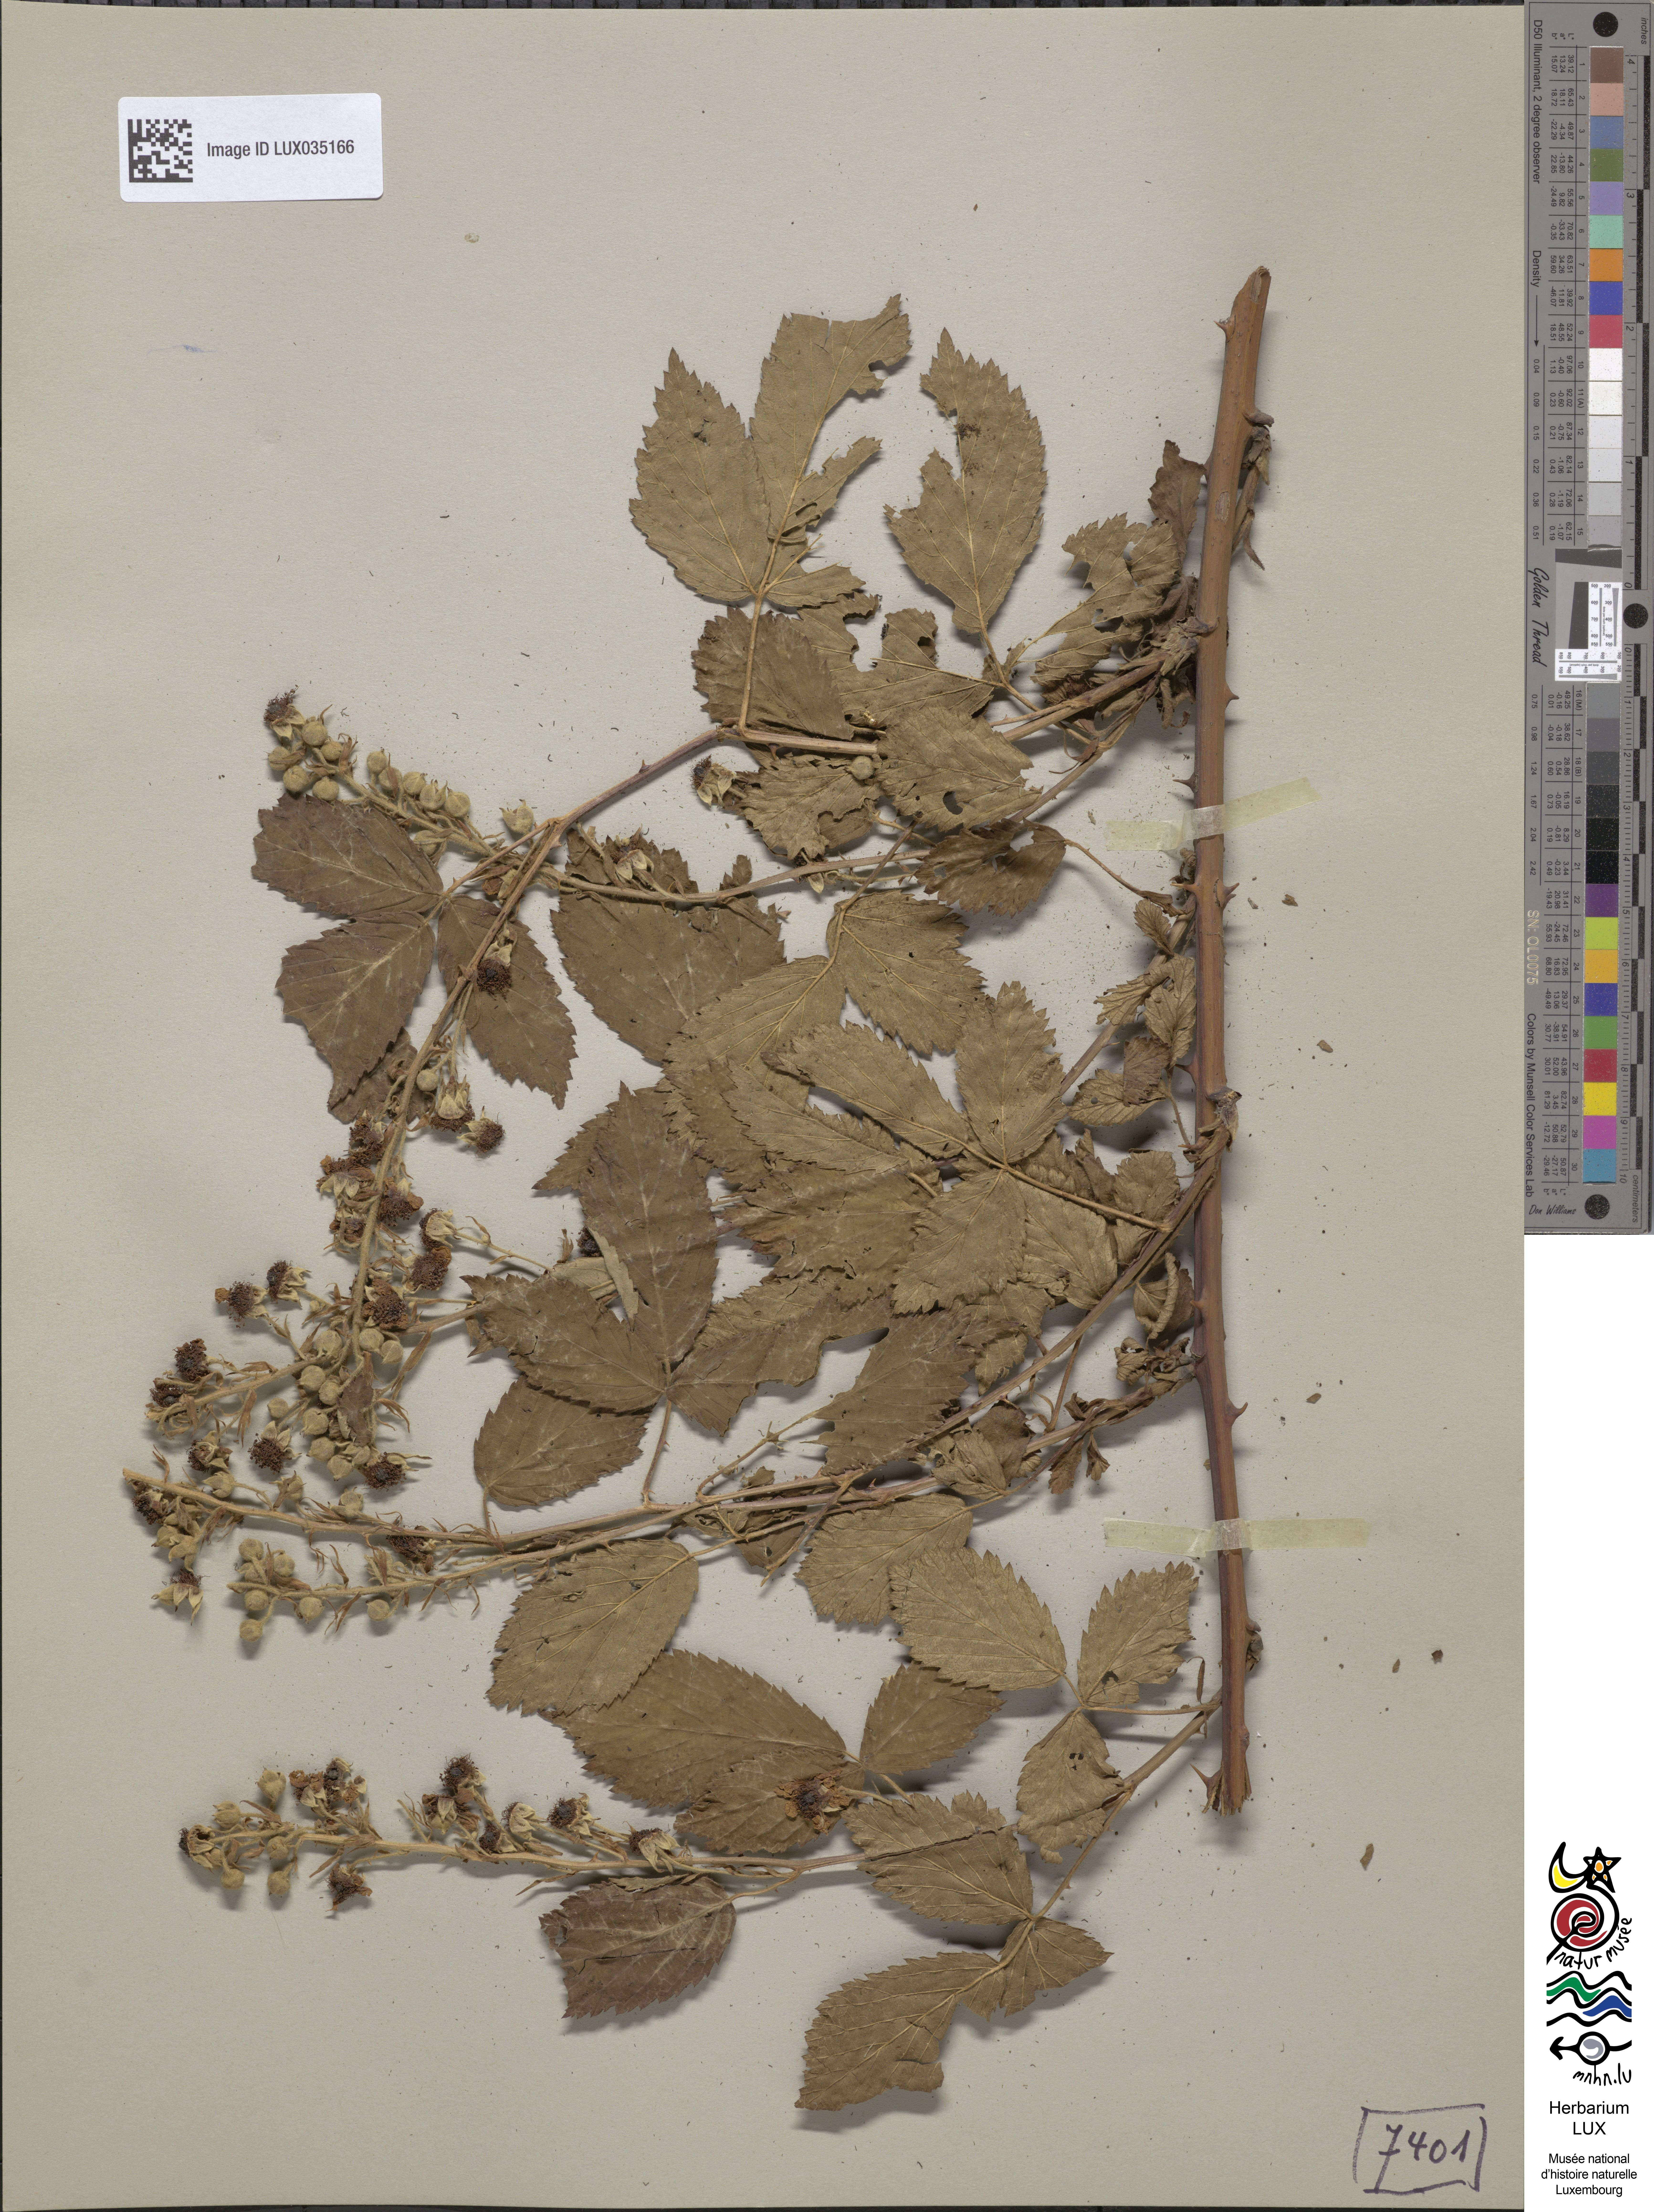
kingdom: Plantae
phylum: Tracheophyta
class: Magnoliopsida
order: Rosales
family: Rosaceae
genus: Rubus
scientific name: Rubus silesiacus
